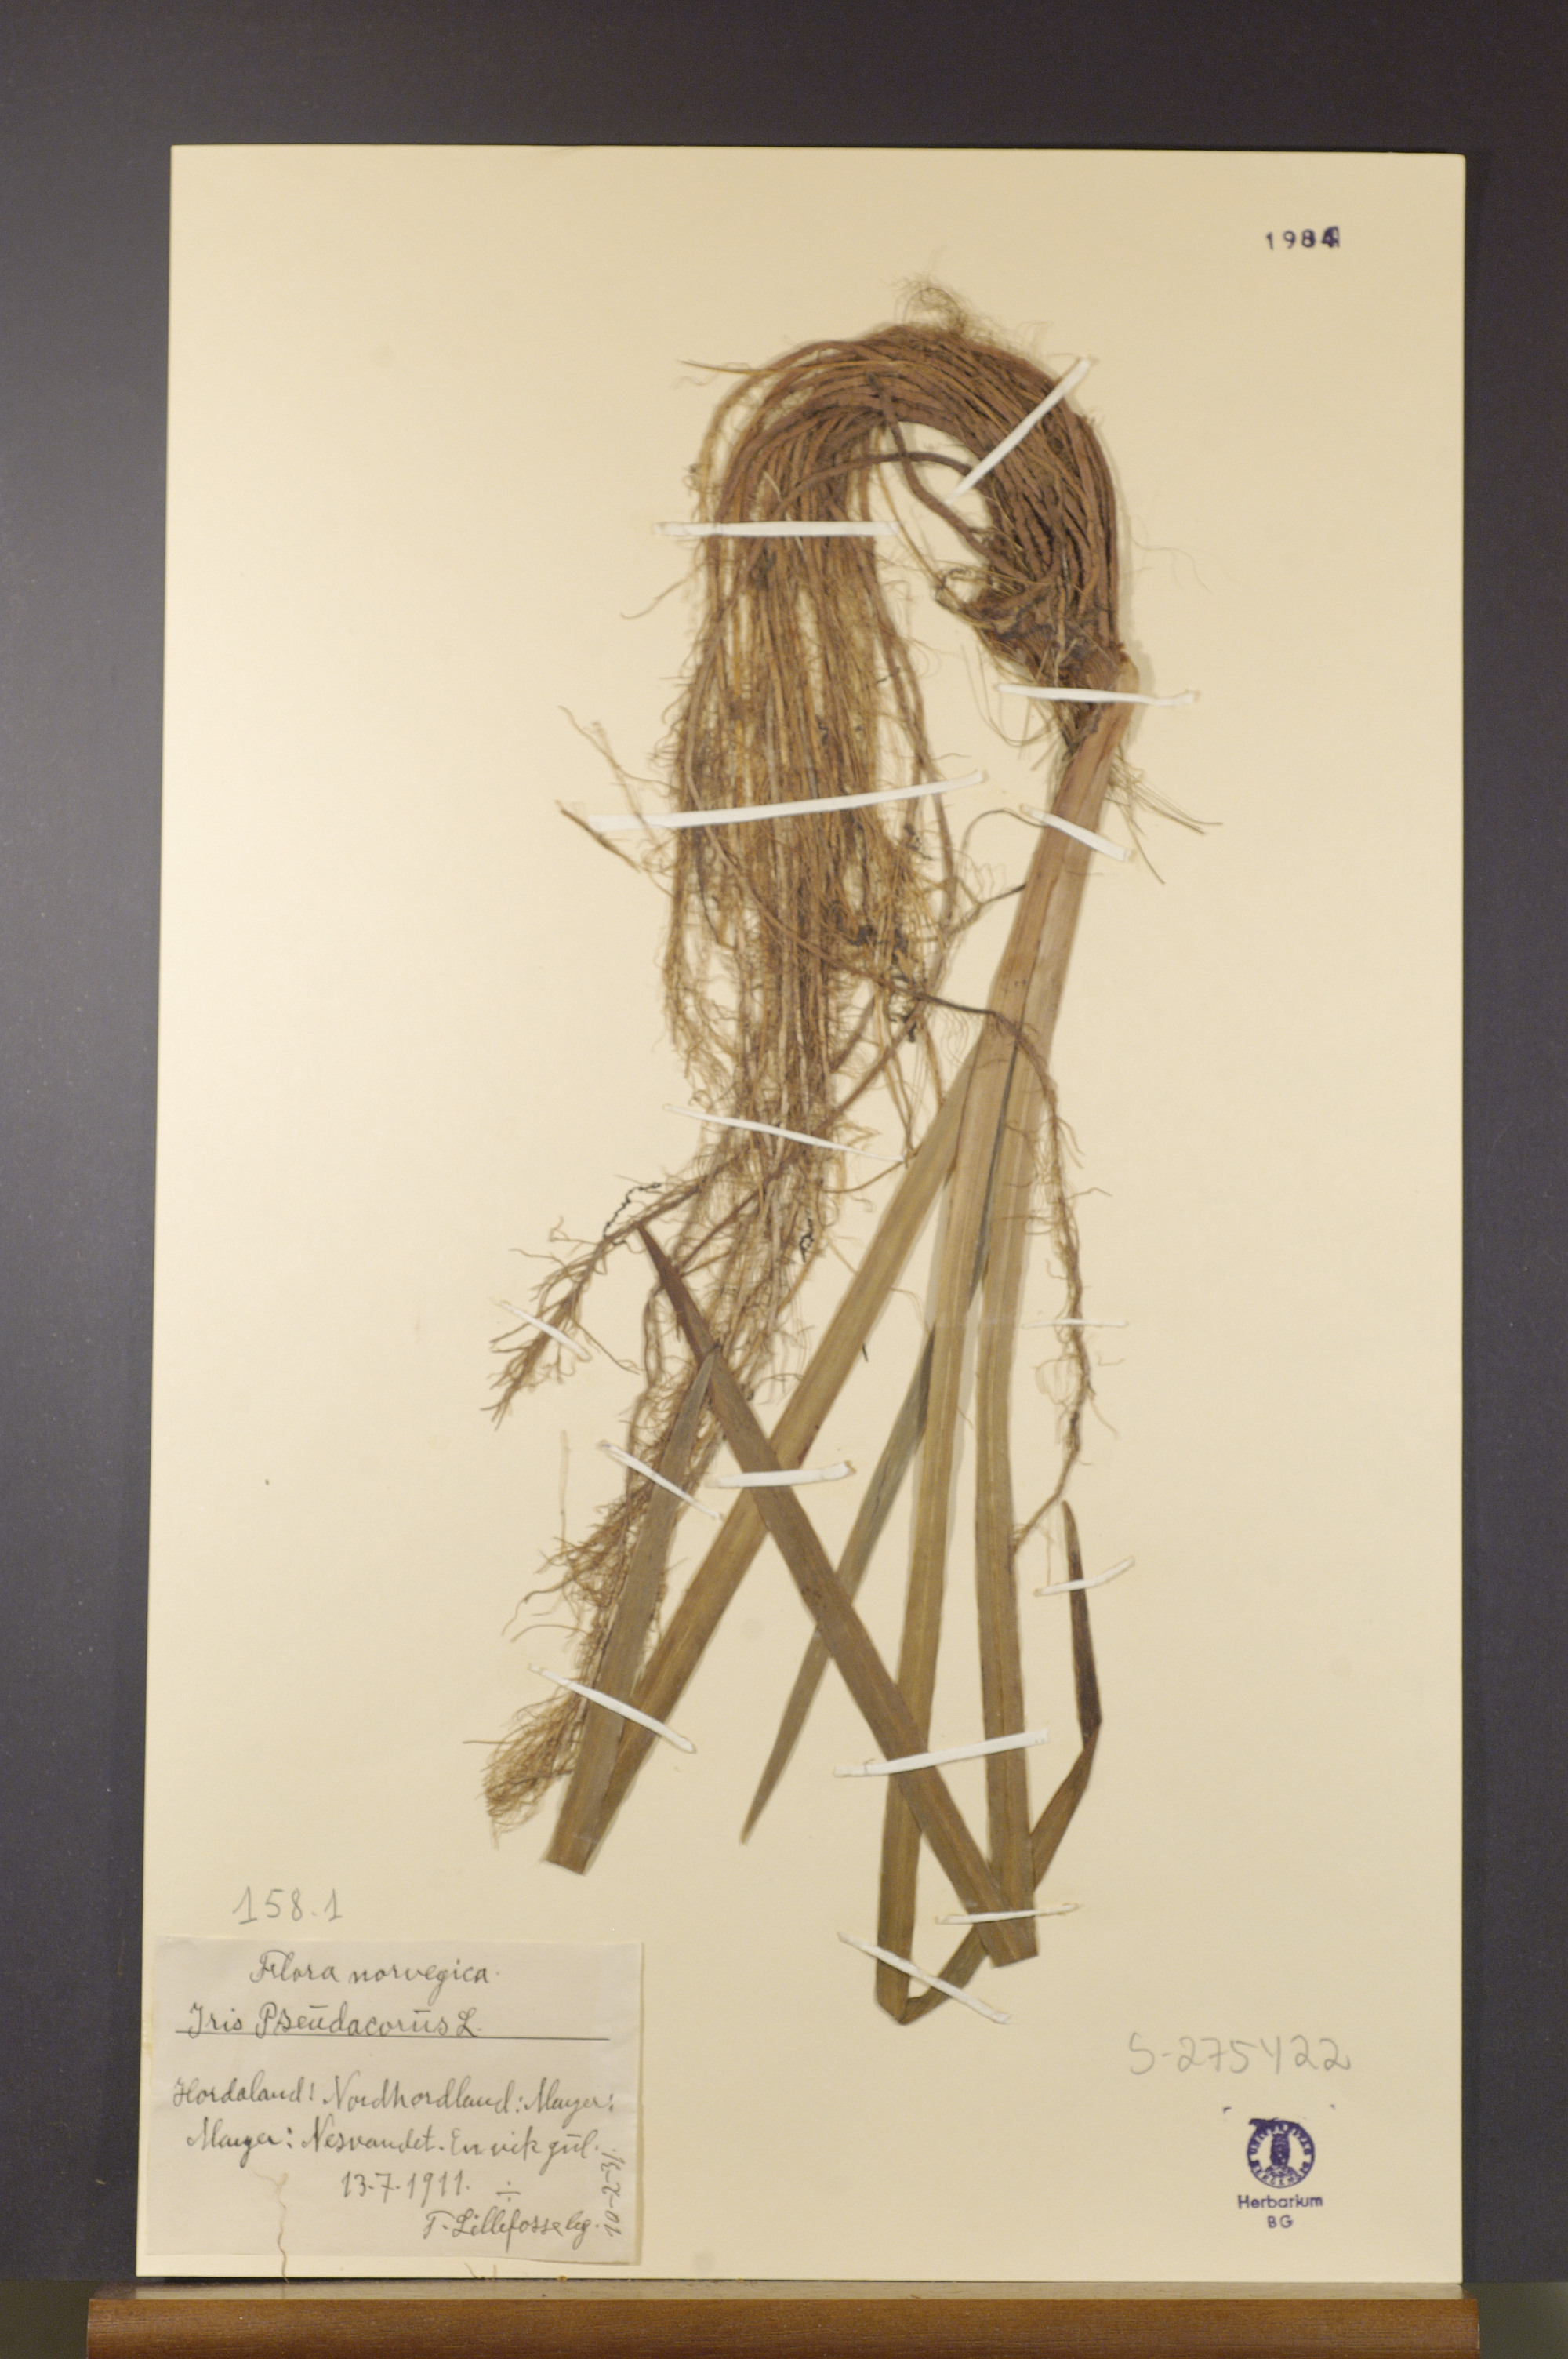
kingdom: Plantae
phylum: Tracheophyta
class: Liliopsida
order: Asparagales
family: Iridaceae
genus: Iris
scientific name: Iris pseudacorus
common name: Yellow flag
